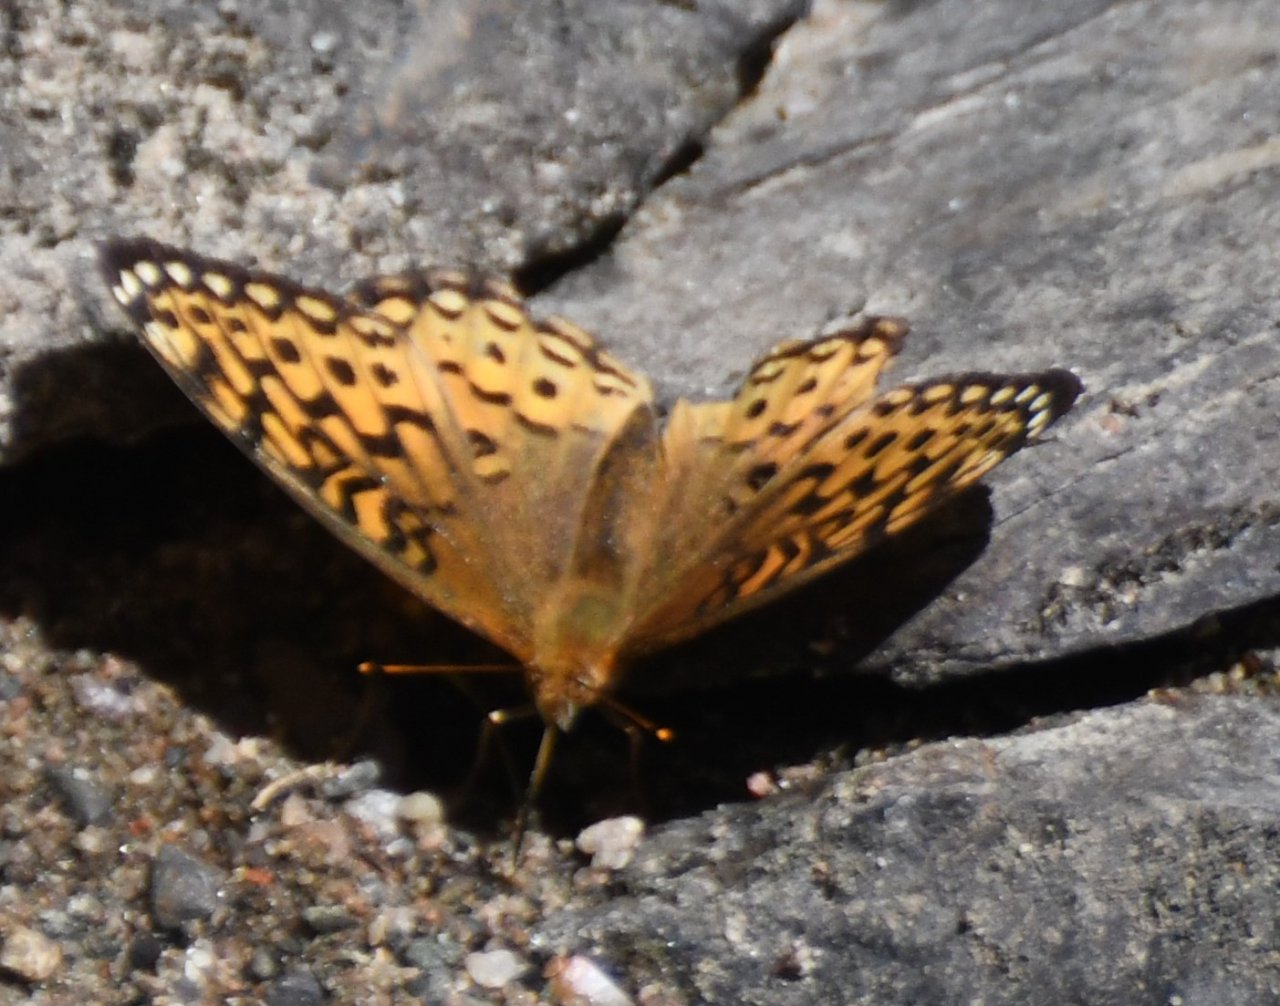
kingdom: Animalia
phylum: Arthropoda
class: Insecta
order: Lepidoptera
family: Nymphalidae
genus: Speyeria
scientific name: Speyeria aphrodite
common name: Aphrodite Fritillary
